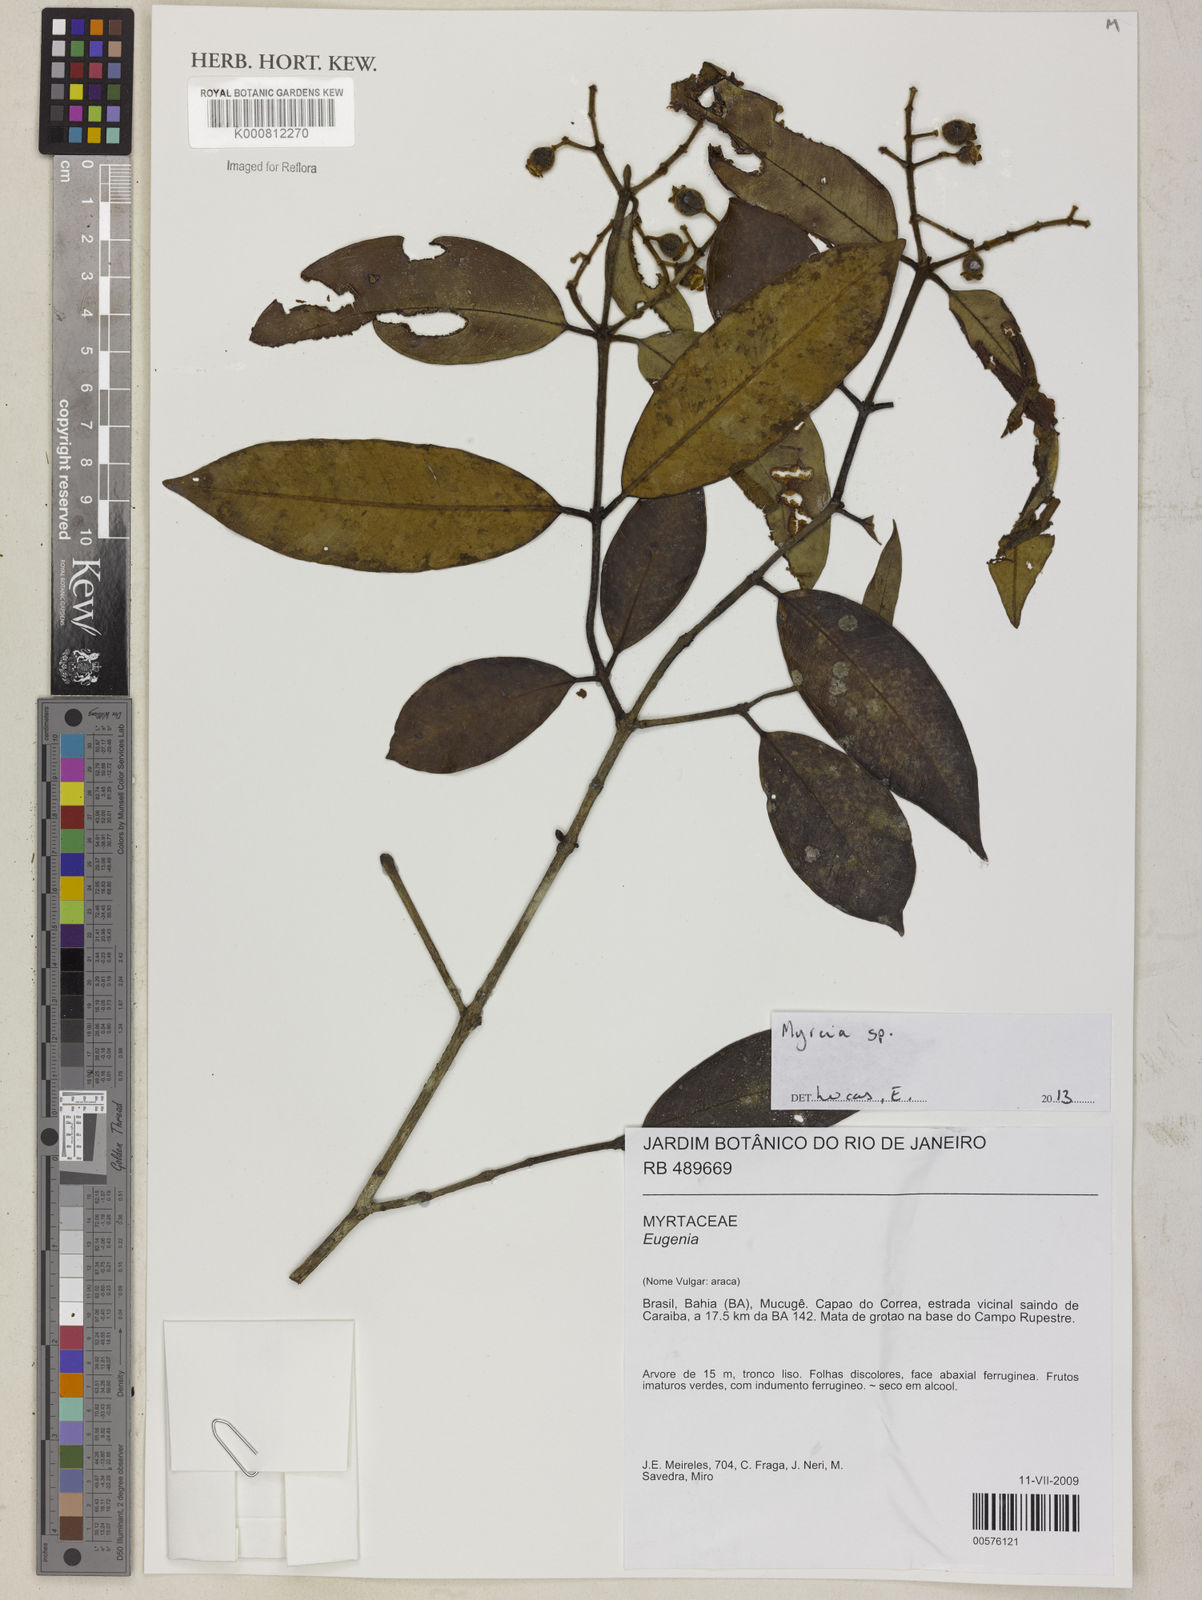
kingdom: Plantae
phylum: Tracheophyta
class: Magnoliopsida
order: Myrtales
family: Myrtaceae
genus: Myrcia
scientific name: Myrcia
